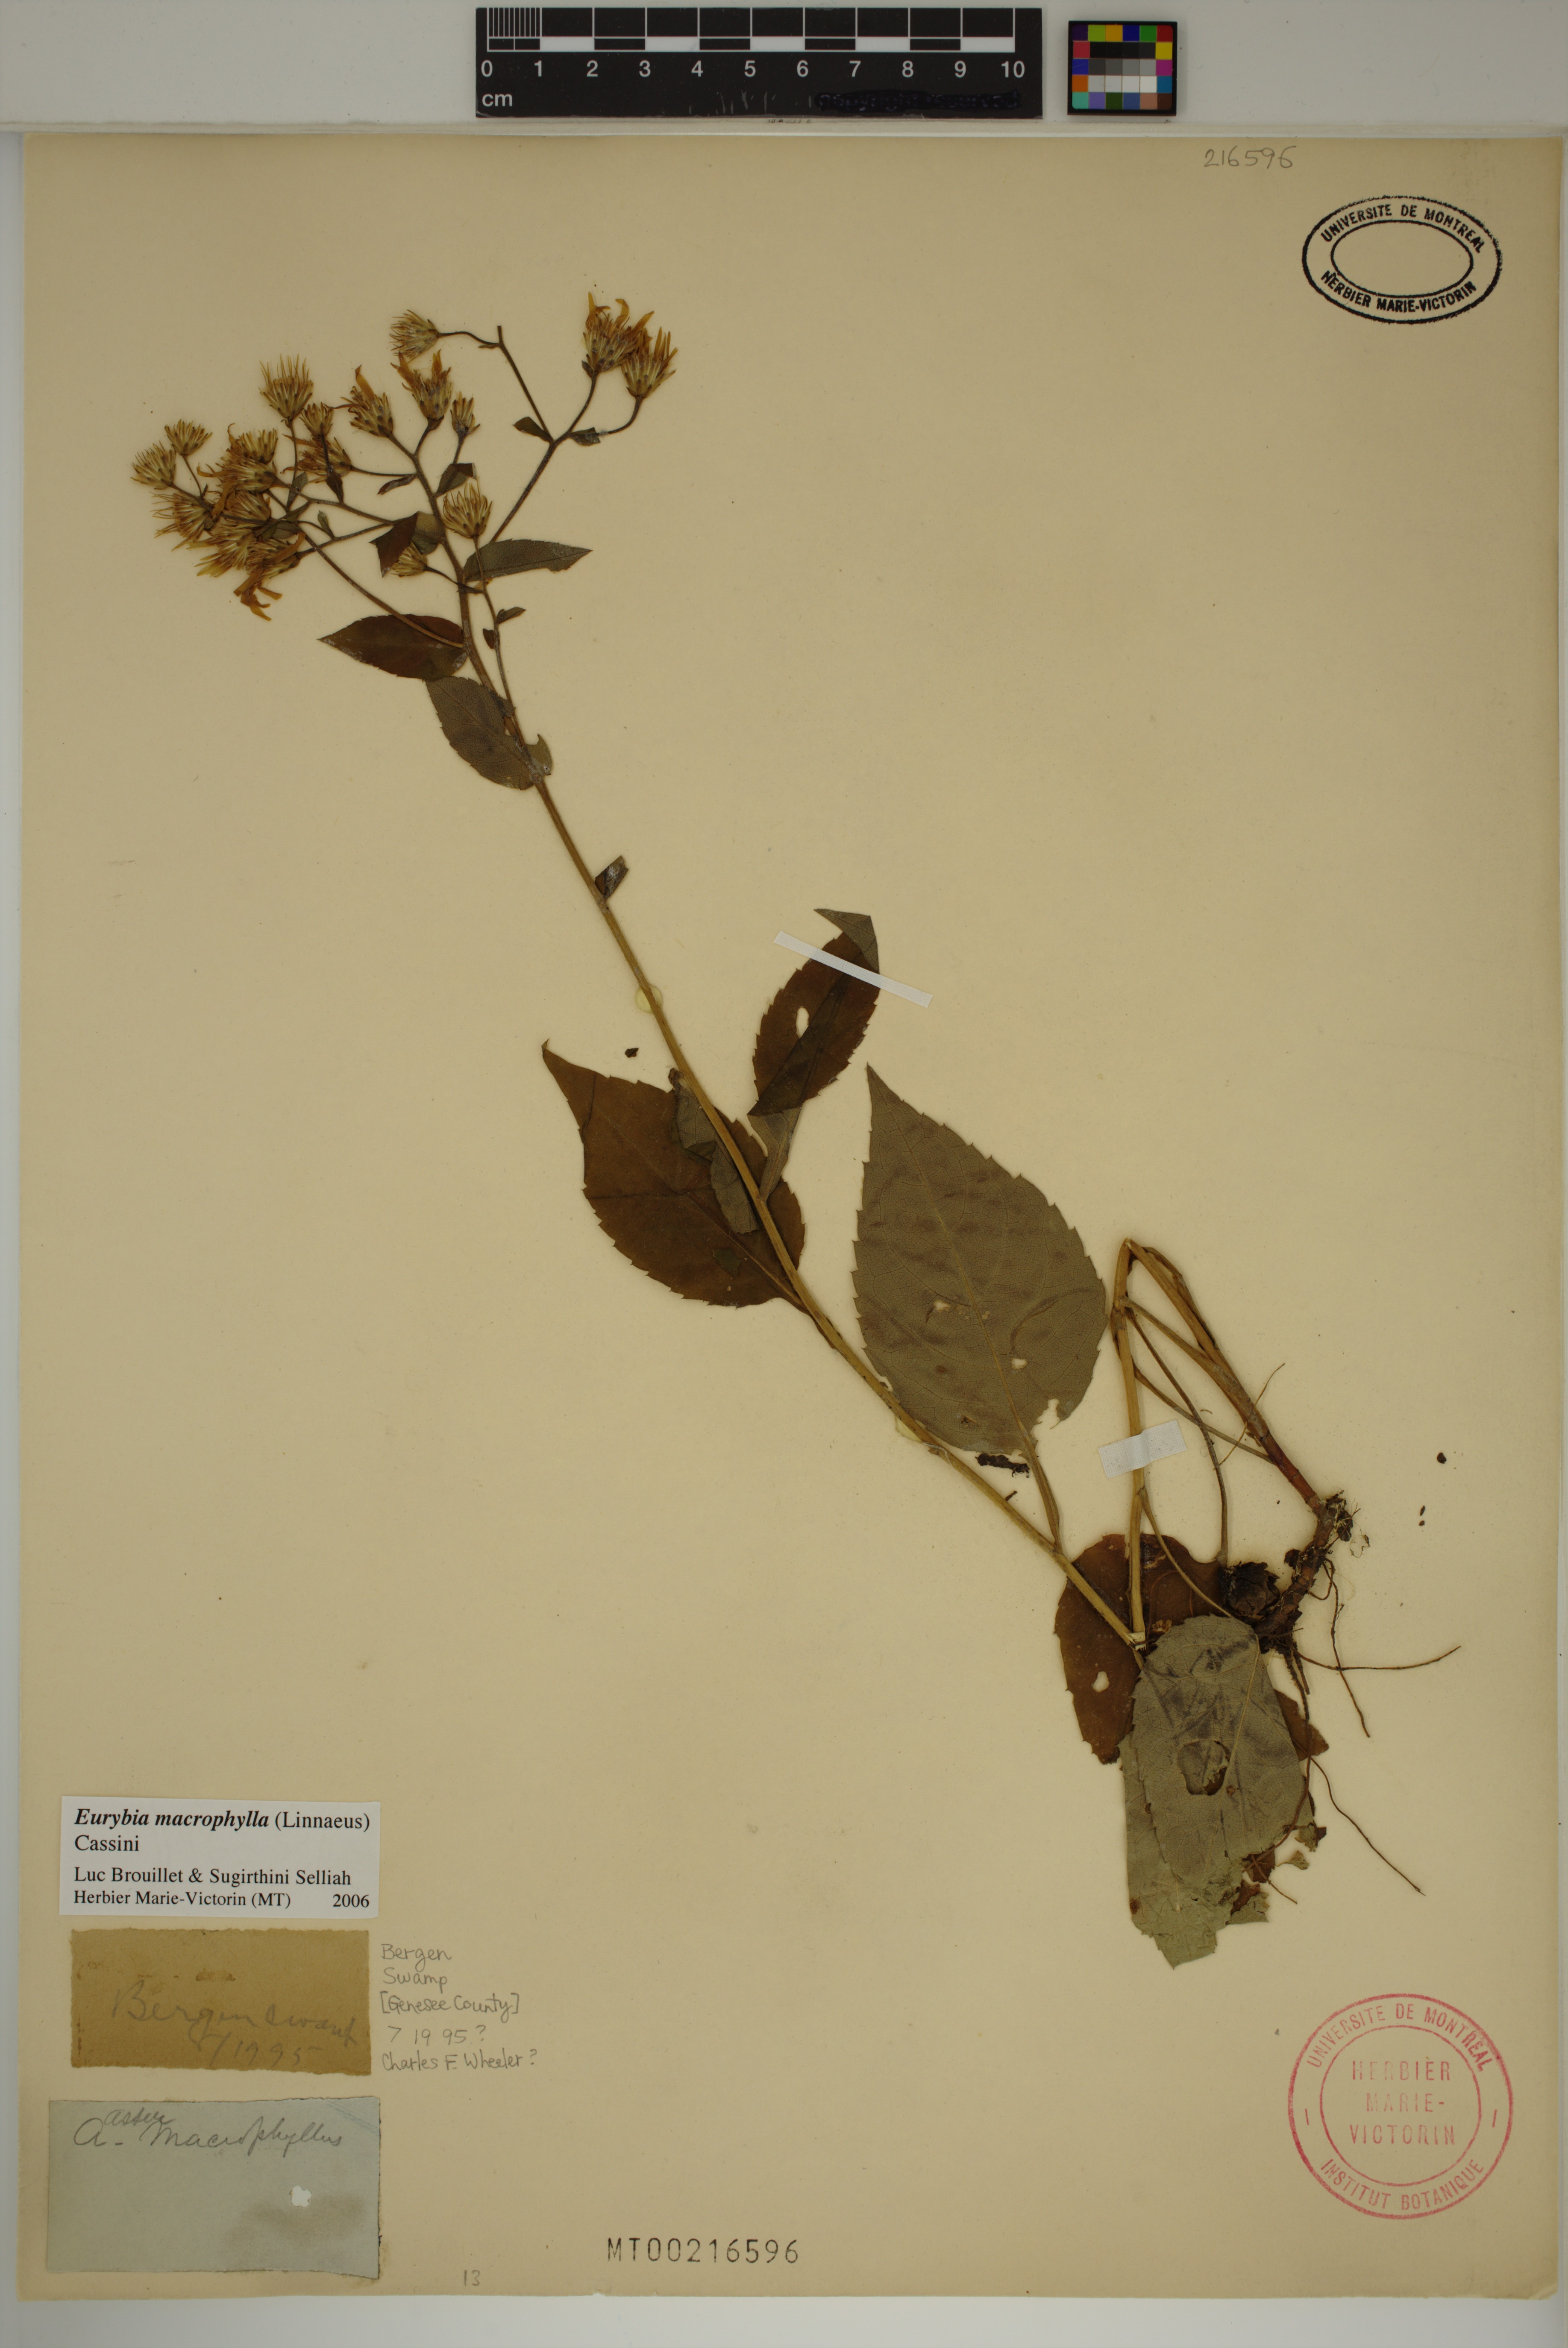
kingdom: Plantae
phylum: Tracheophyta
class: Magnoliopsida
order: Asterales
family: Asteraceae
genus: Eurybia
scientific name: Eurybia macrophylla
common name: Big-leaved aster
